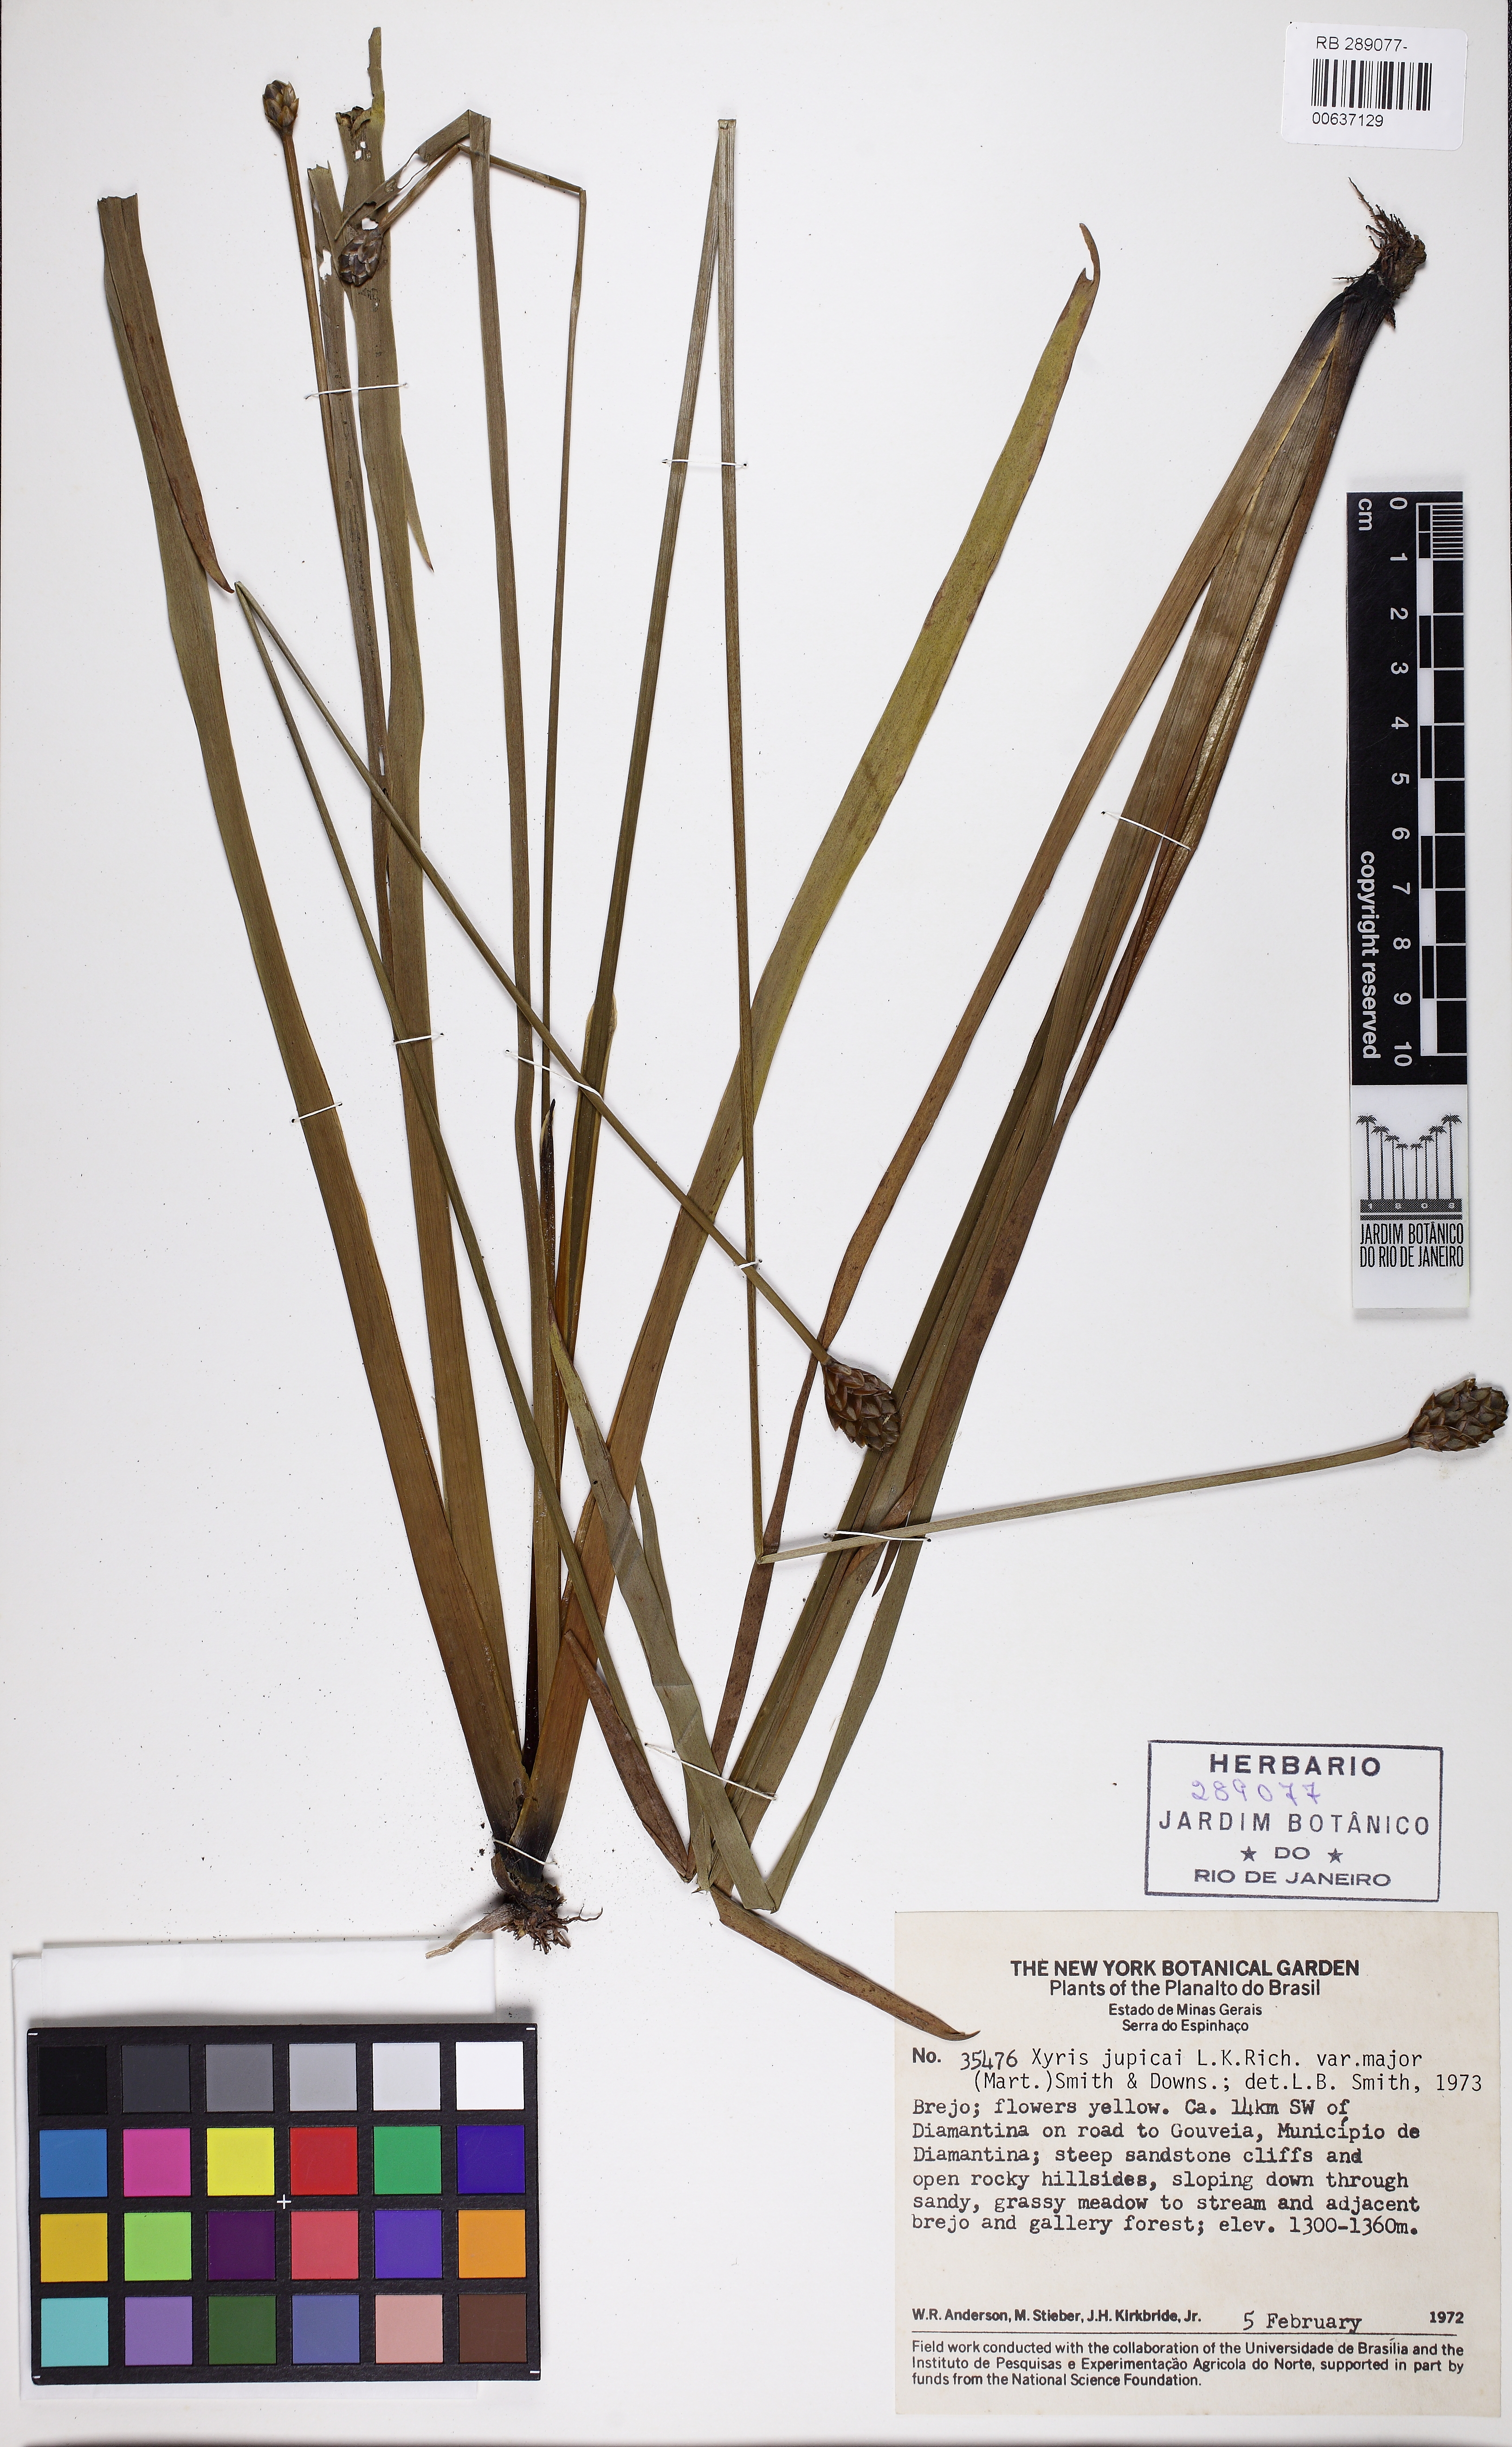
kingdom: Plantae
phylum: Tracheophyta
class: Liliopsida
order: Poales
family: Xyridaceae
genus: Xyris
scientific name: Xyris jupicai
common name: Richard's yelloweyed grass
